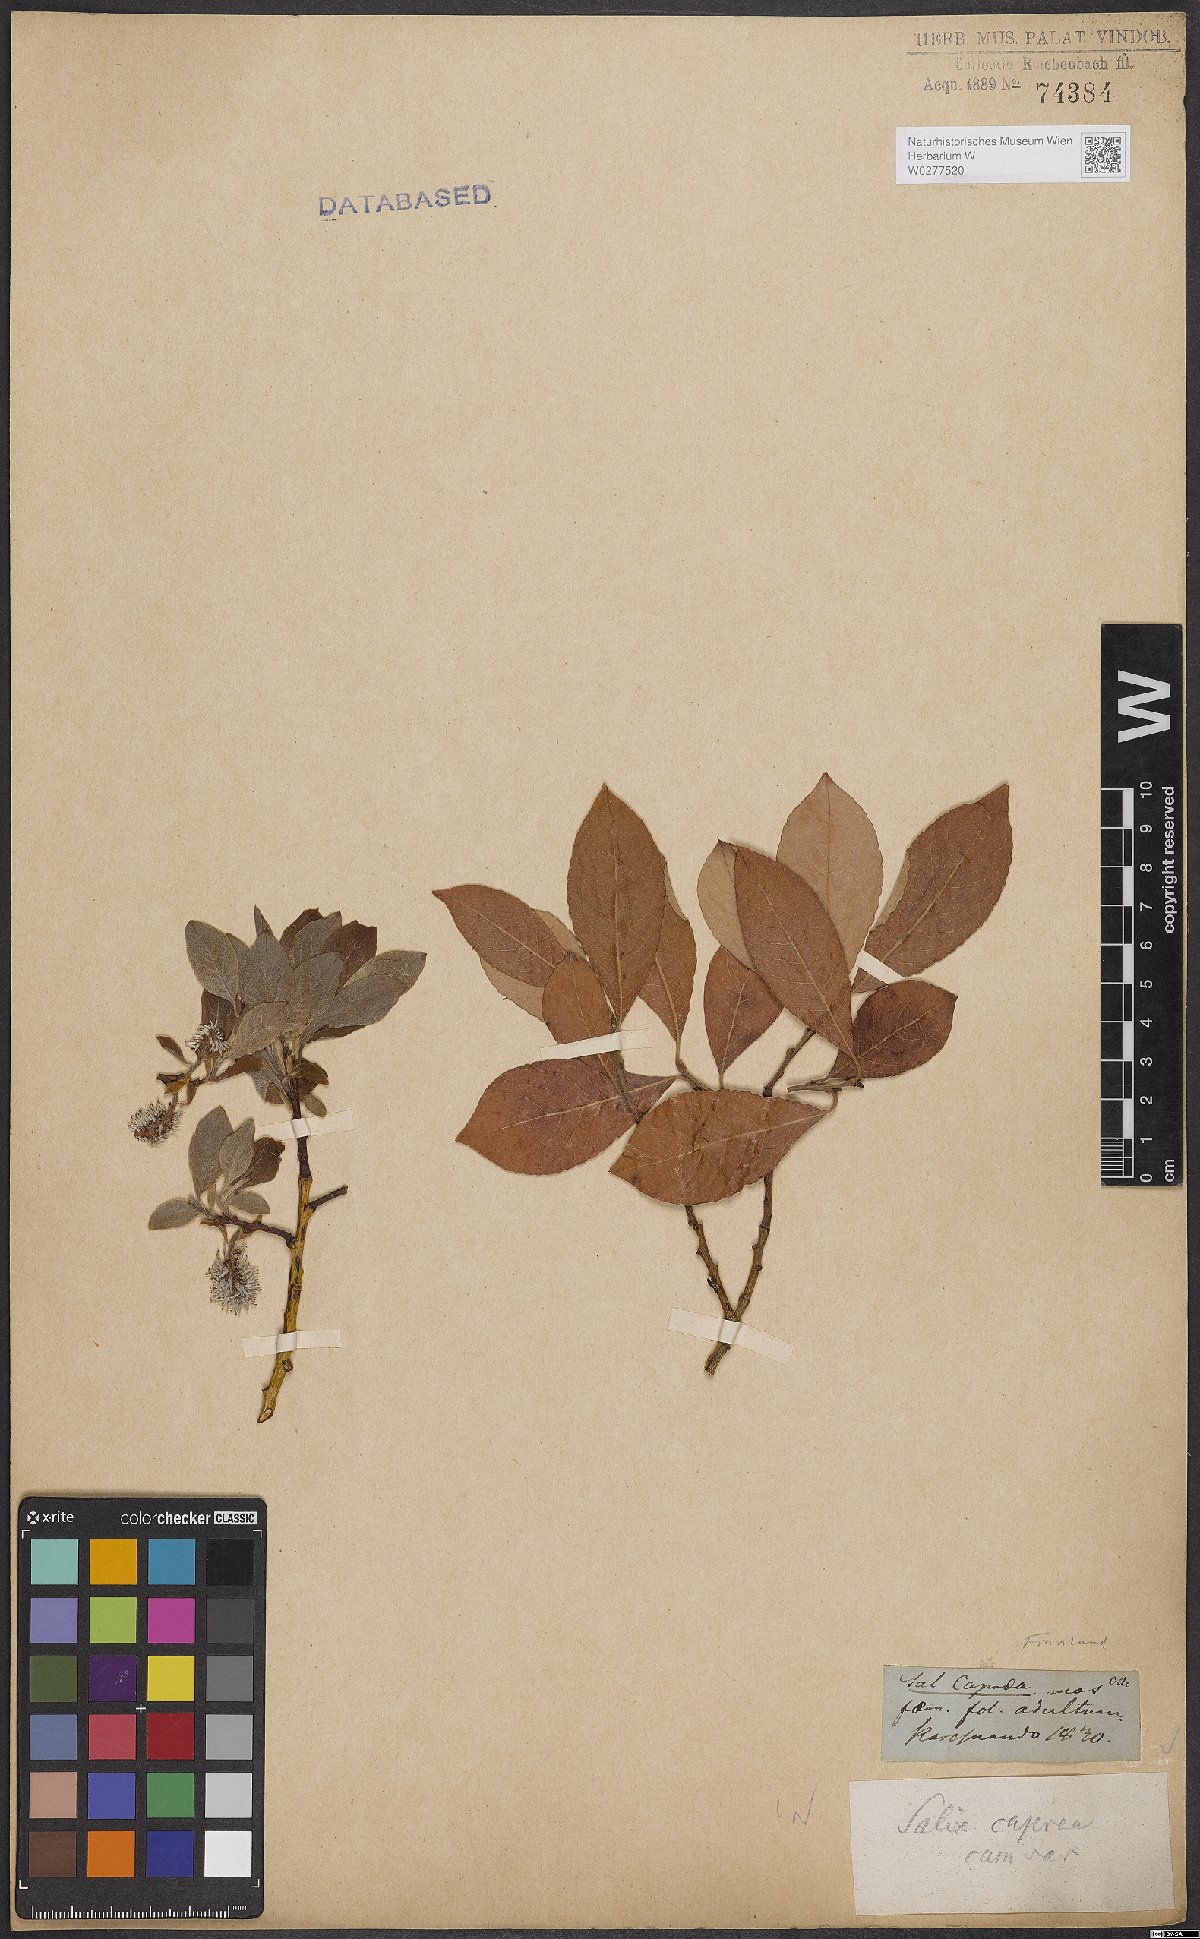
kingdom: Plantae
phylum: Tracheophyta
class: Magnoliopsida
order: Malpighiales
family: Salicaceae
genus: Salix
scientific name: Salix caprea
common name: Goat willow
